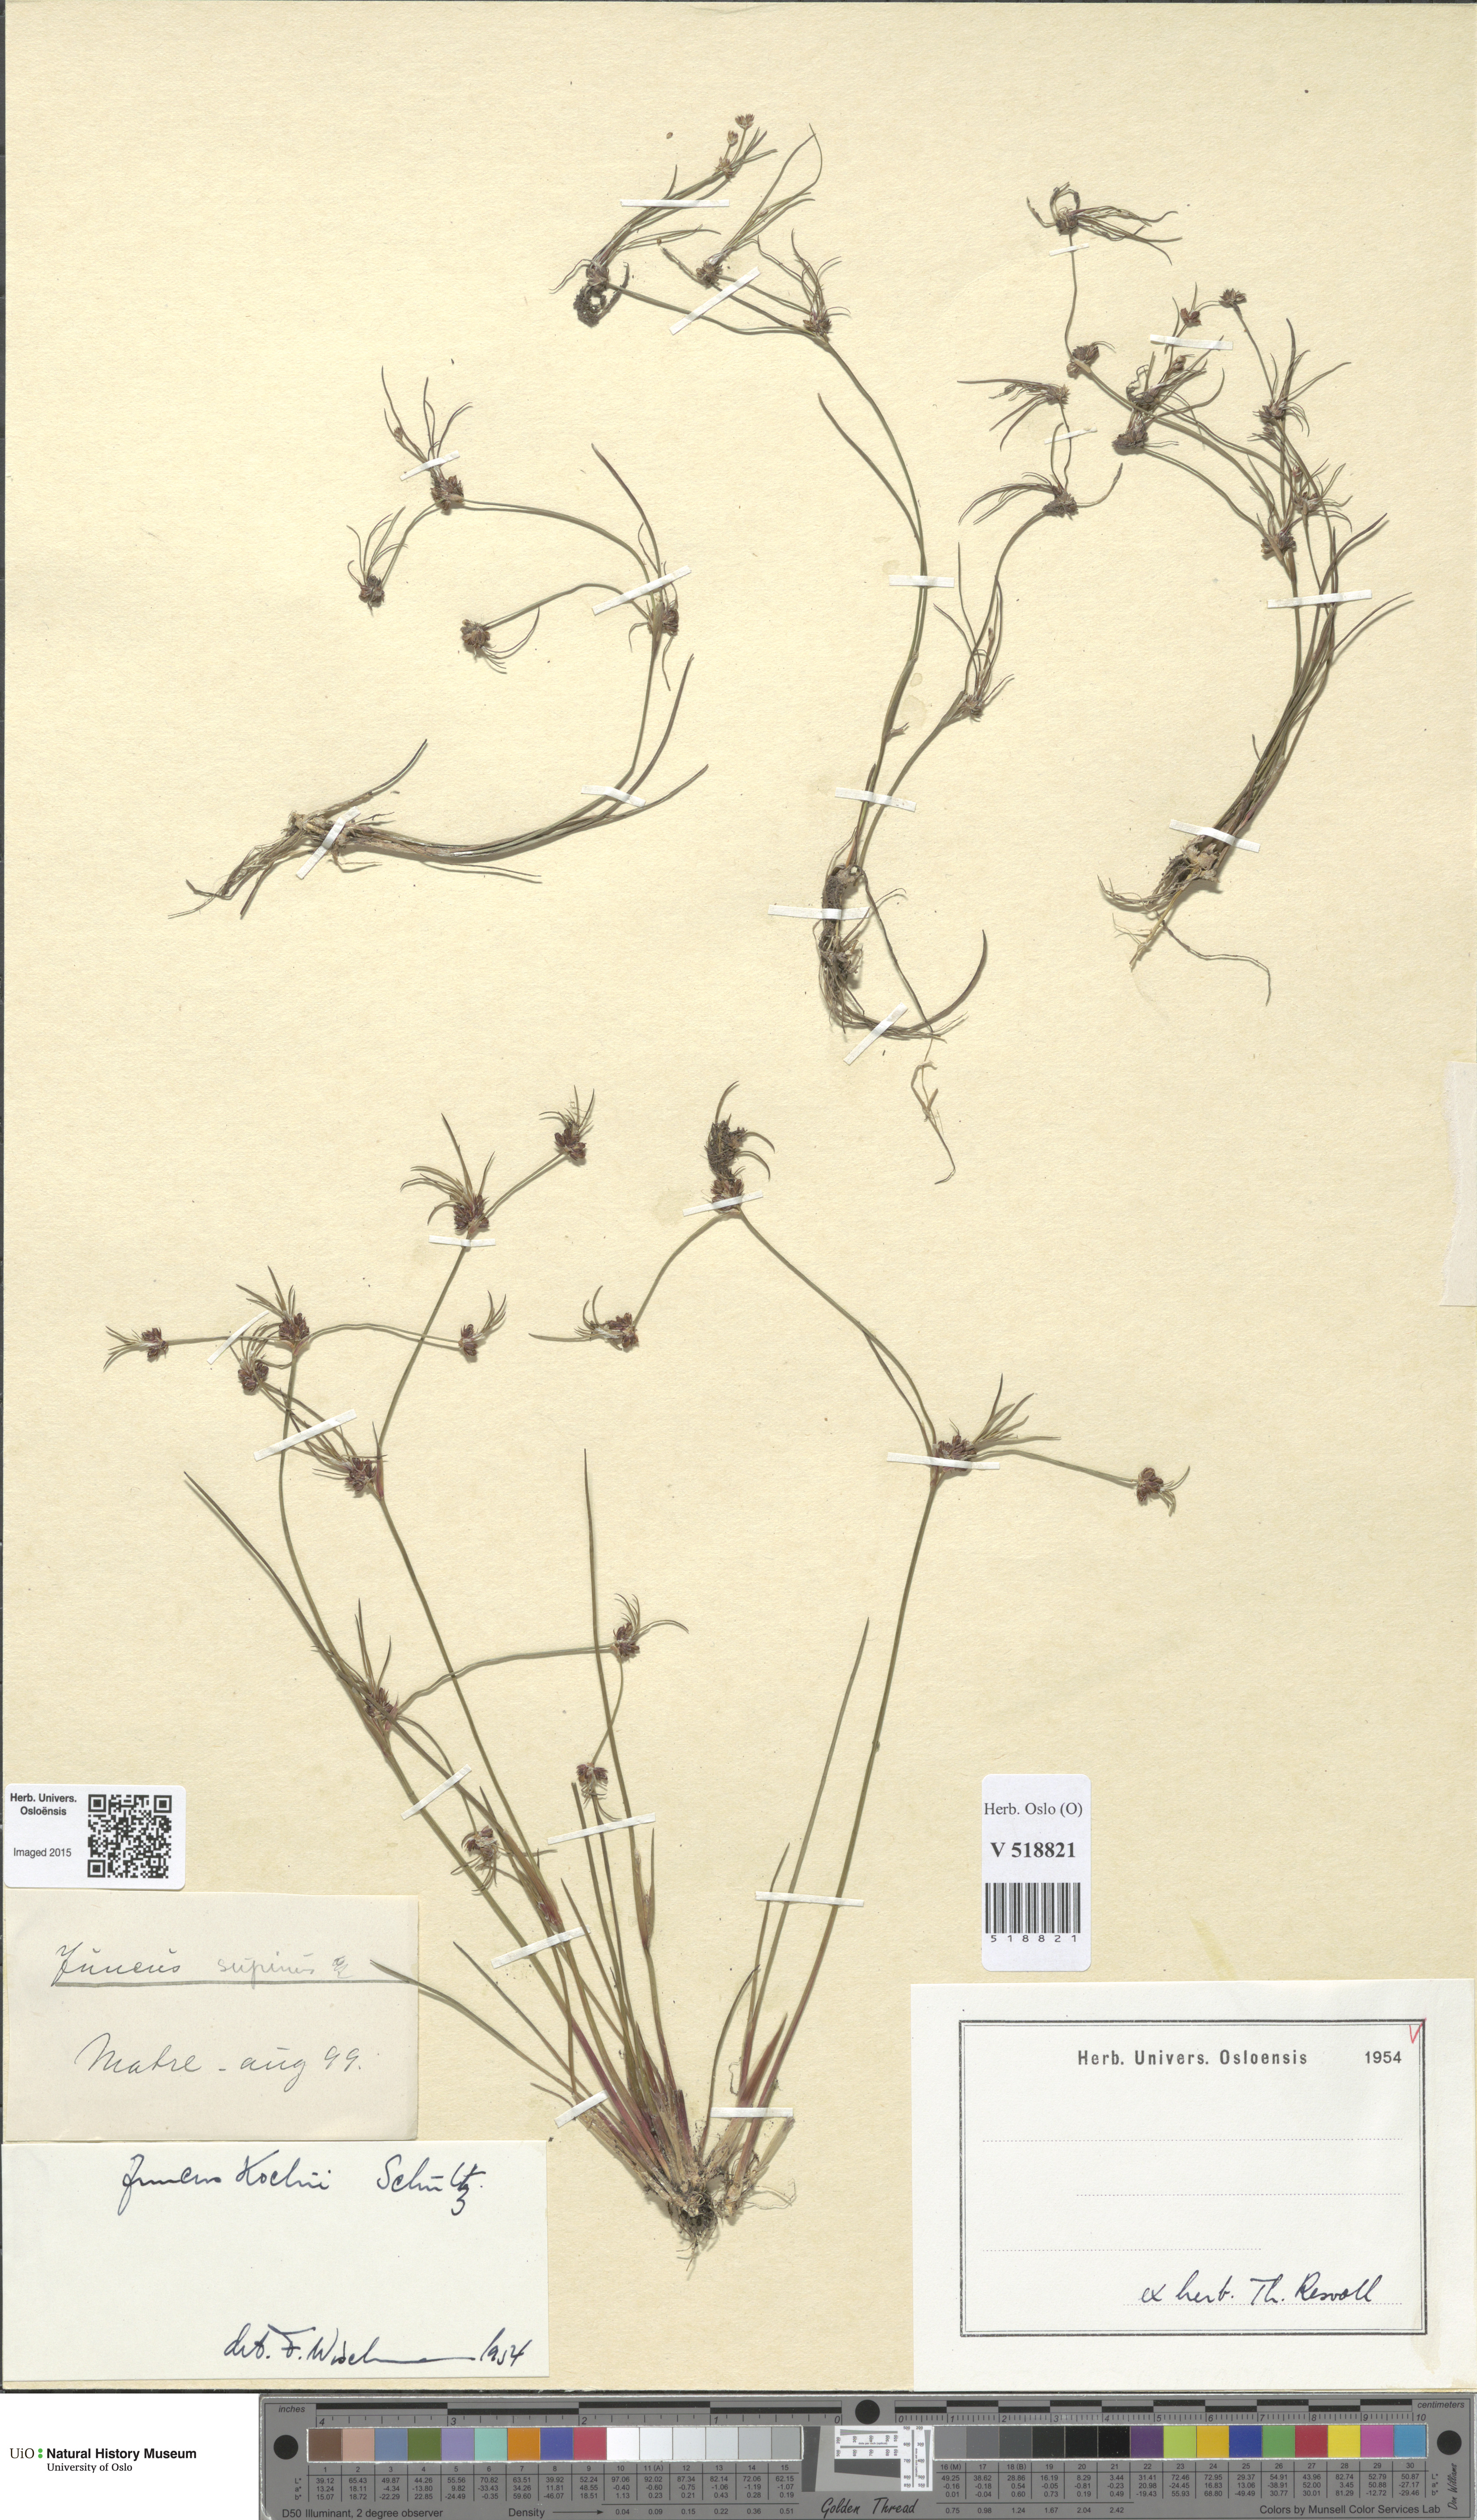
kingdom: Plantae
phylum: Tracheophyta
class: Liliopsida
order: Poales
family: Juncaceae
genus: Juncus
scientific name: Juncus bulbosus
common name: Bulbous rush
